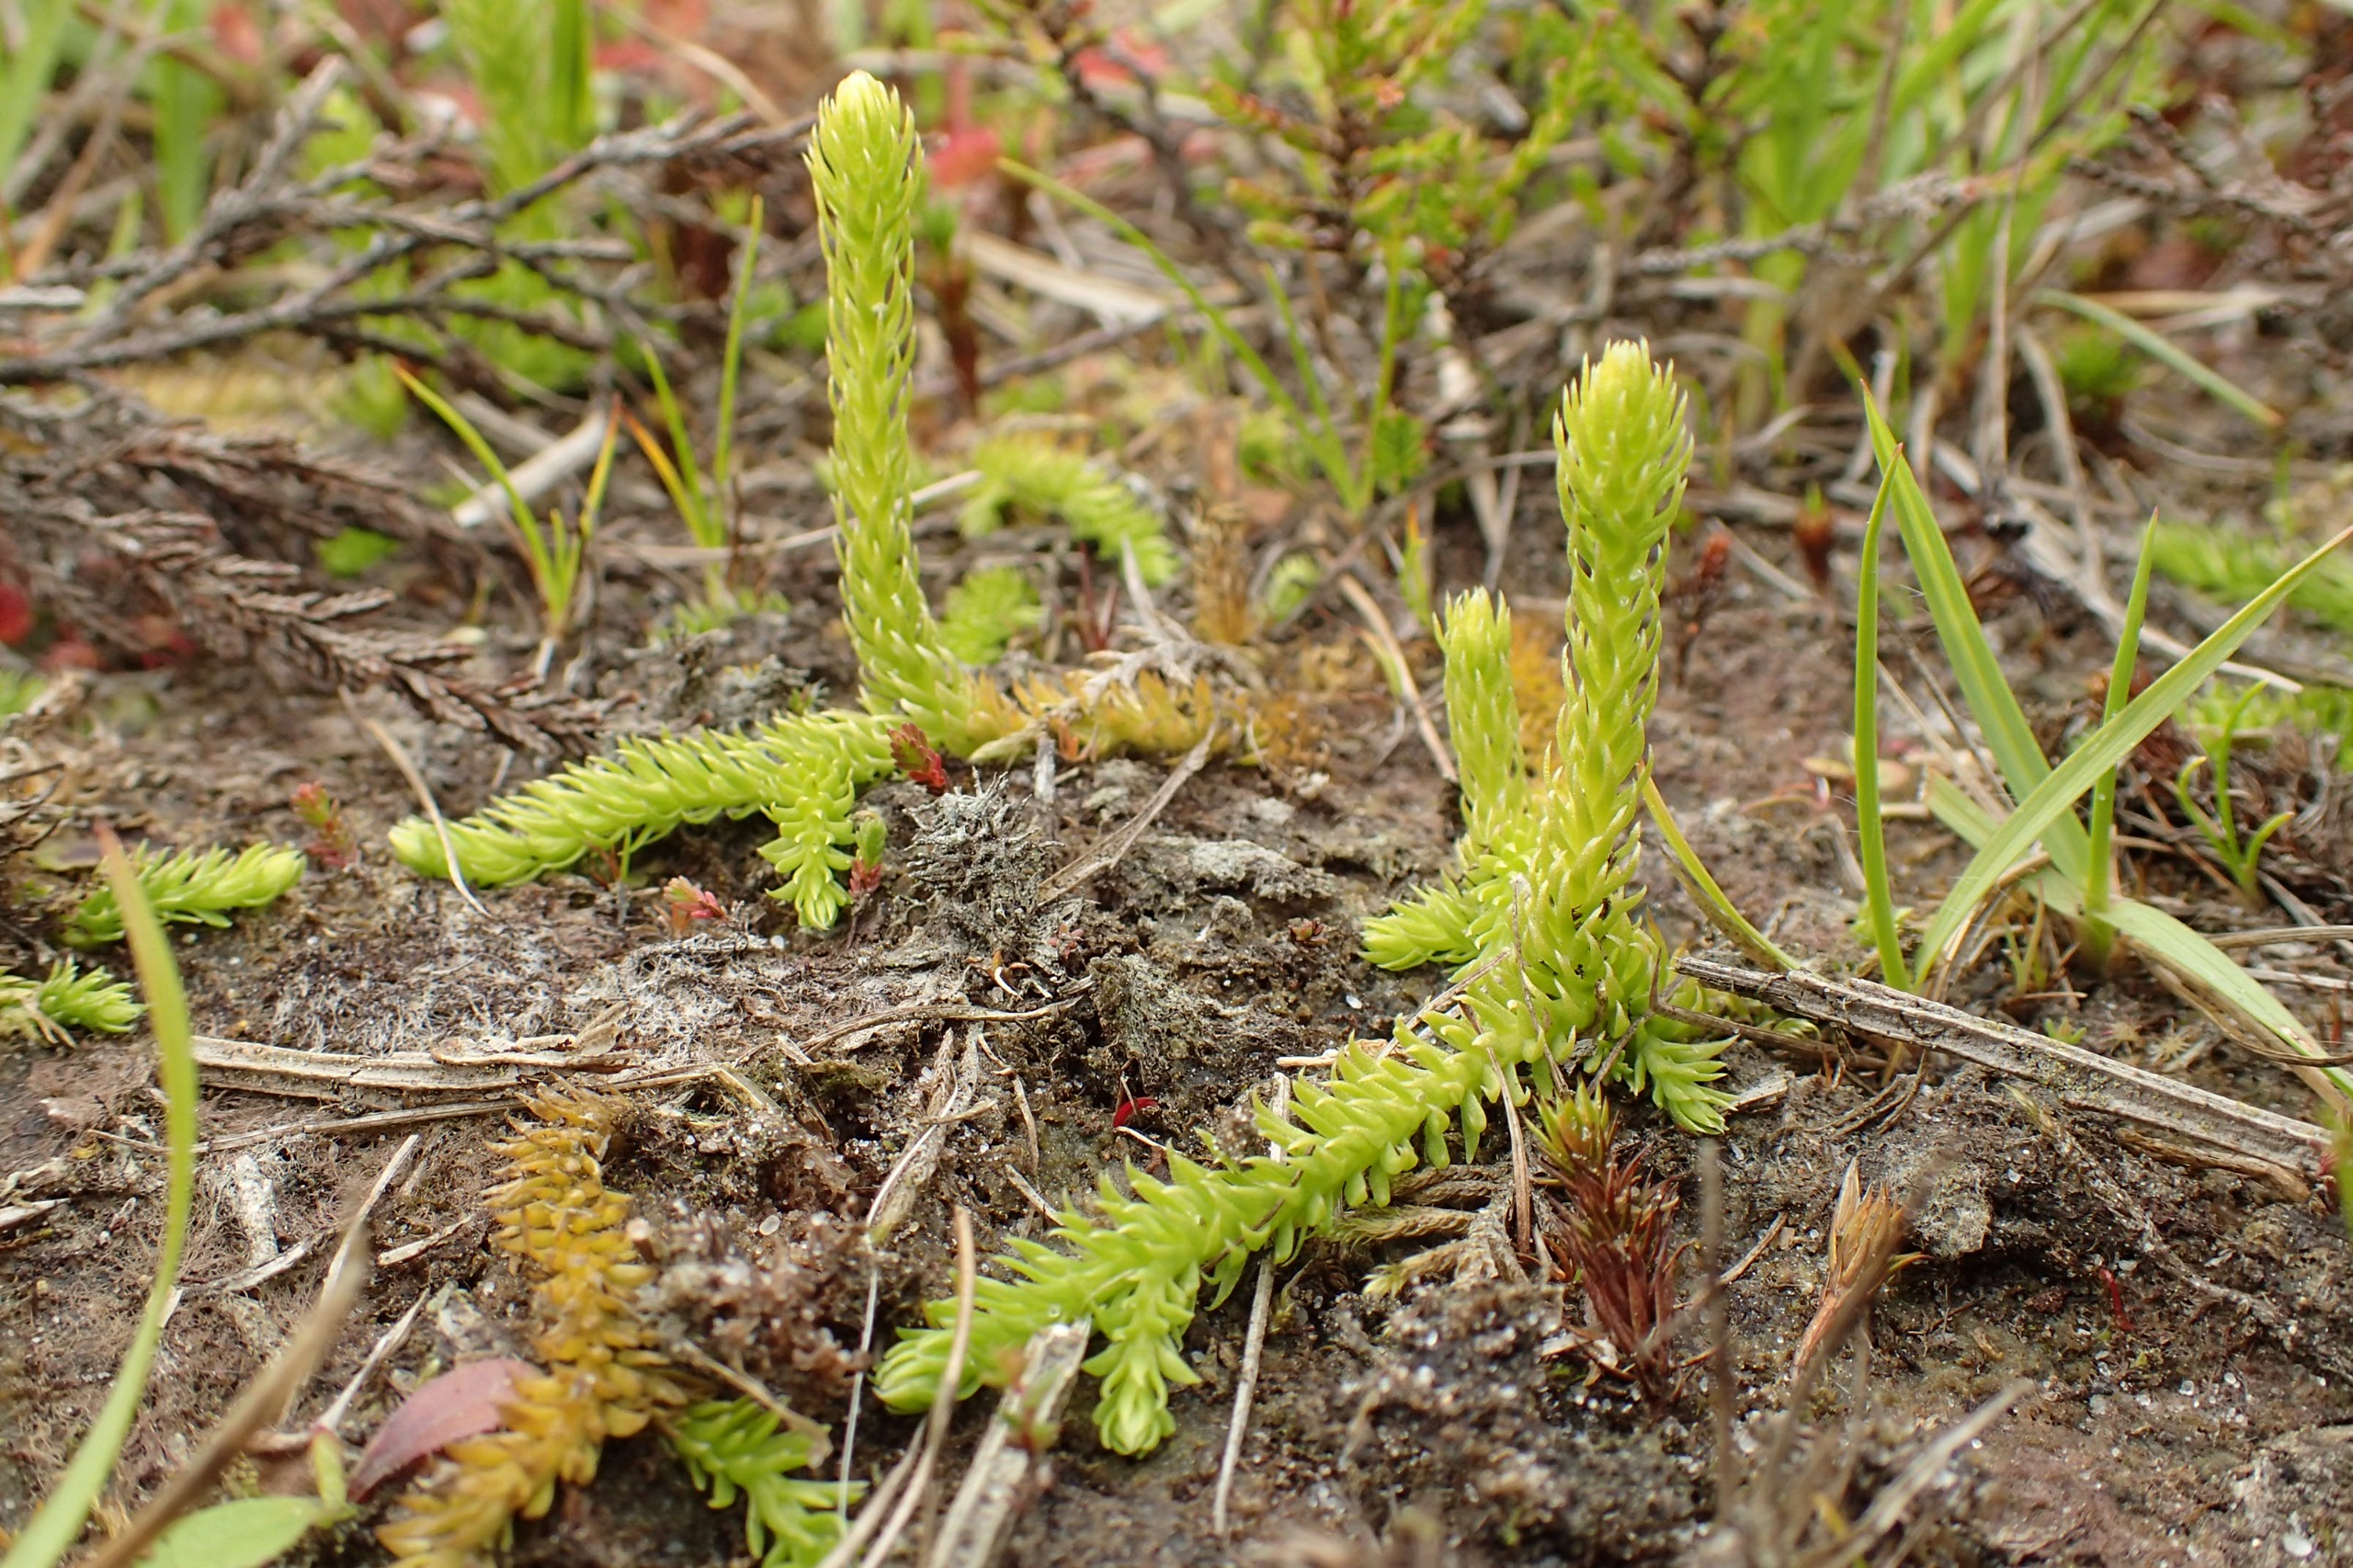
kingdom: Plantae
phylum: Tracheophyta
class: Lycopodiopsida
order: Lycopodiales
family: Lycopodiaceae
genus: Lycopodiella
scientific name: Lycopodiella inundata
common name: Liden ulvefod
